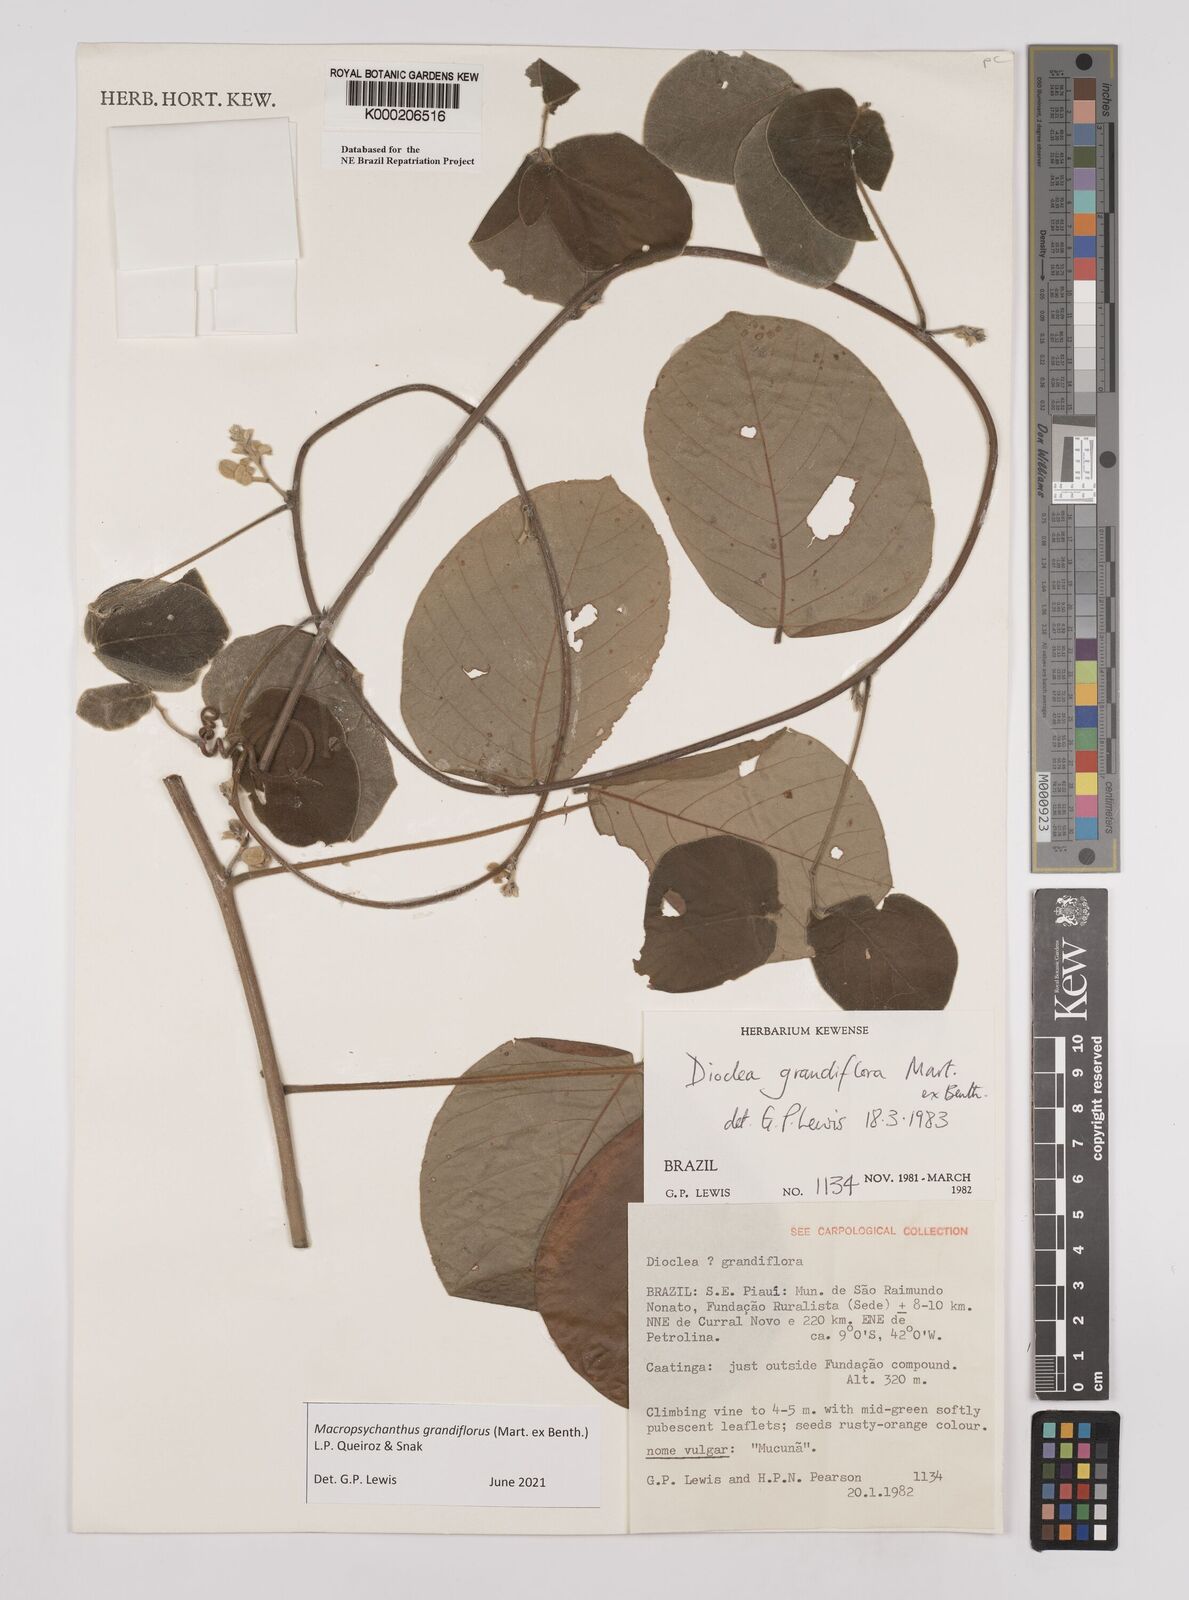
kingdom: Plantae
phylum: Tracheophyta
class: Magnoliopsida
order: Fabales
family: Fabaceae
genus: Macropsychanthus
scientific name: Macropsychanthus grandiflorus
